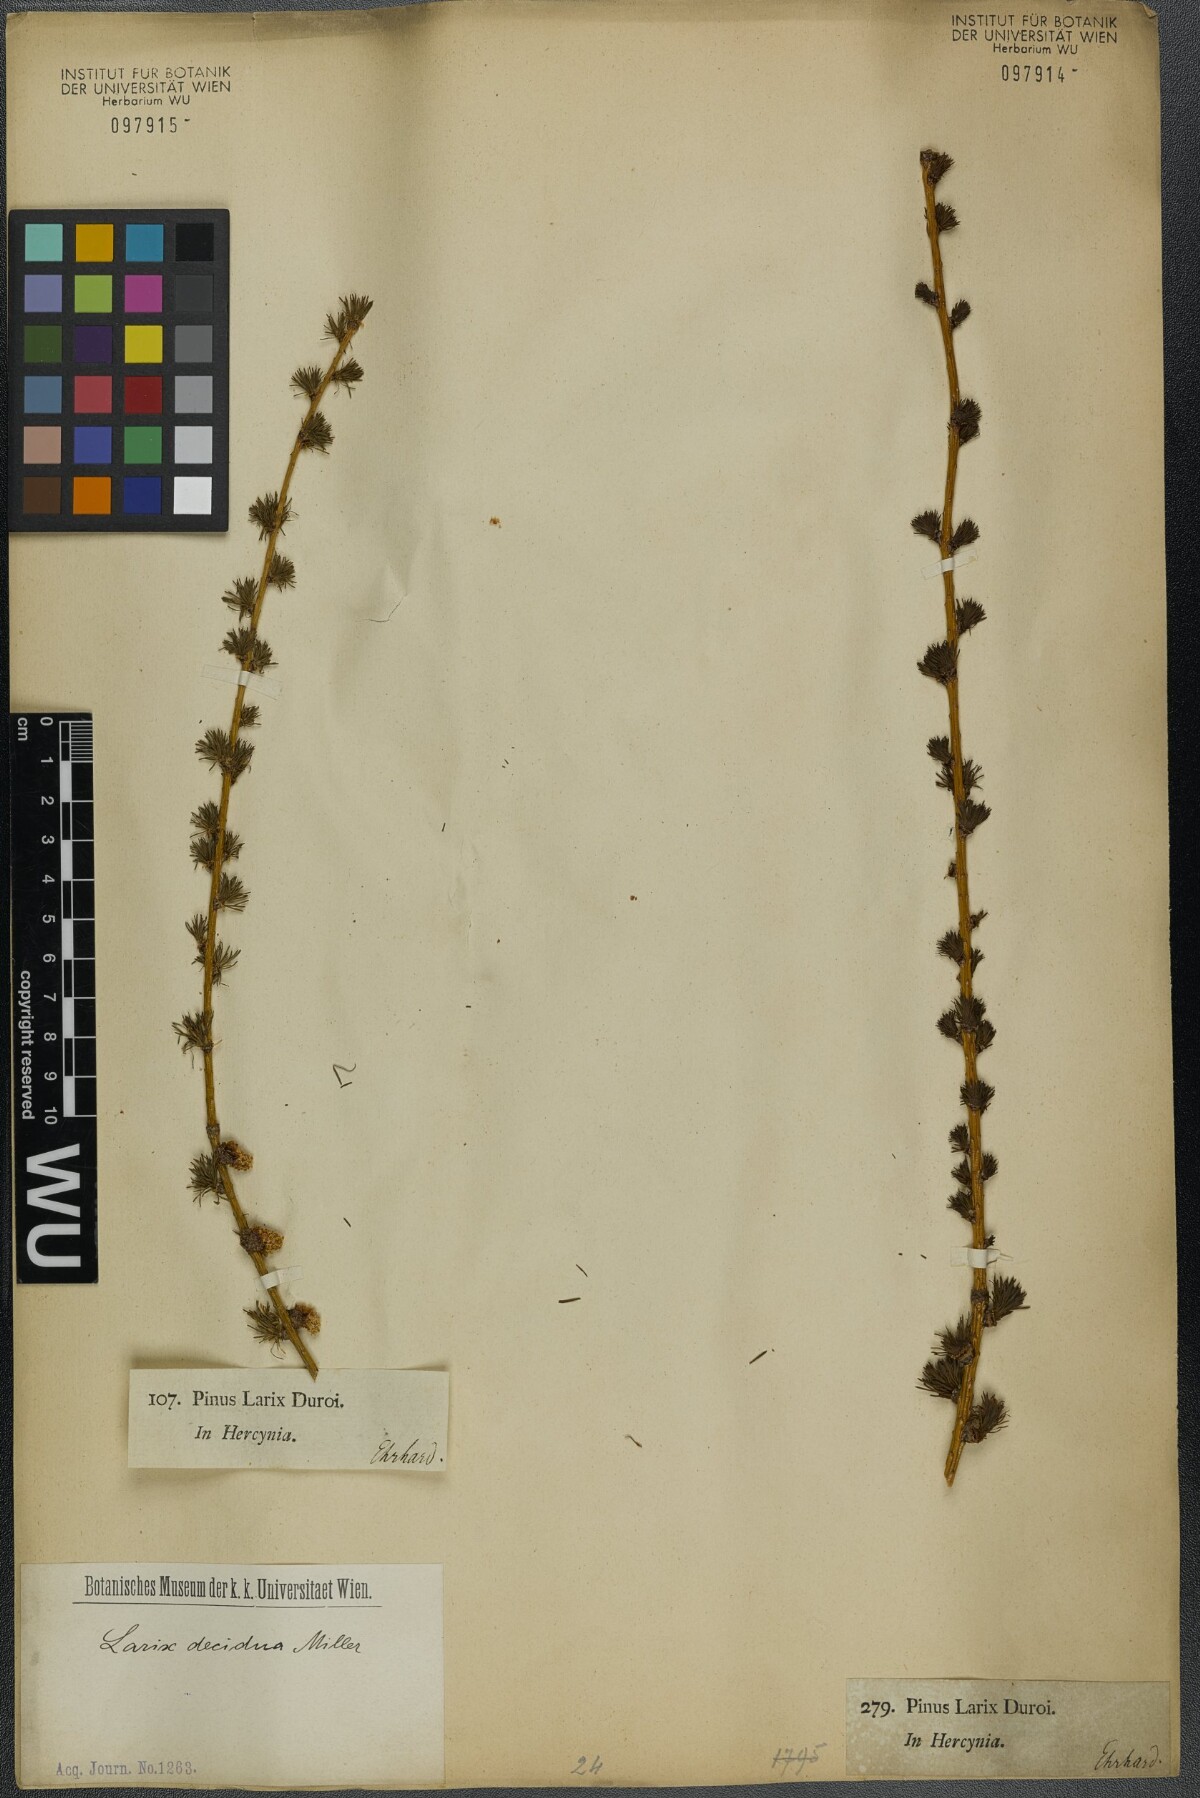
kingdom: Plantae
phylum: Tracheophyta
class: Pinopsida
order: Pinales
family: Pinaceae
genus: Larix
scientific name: Larix decidua
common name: European larch
